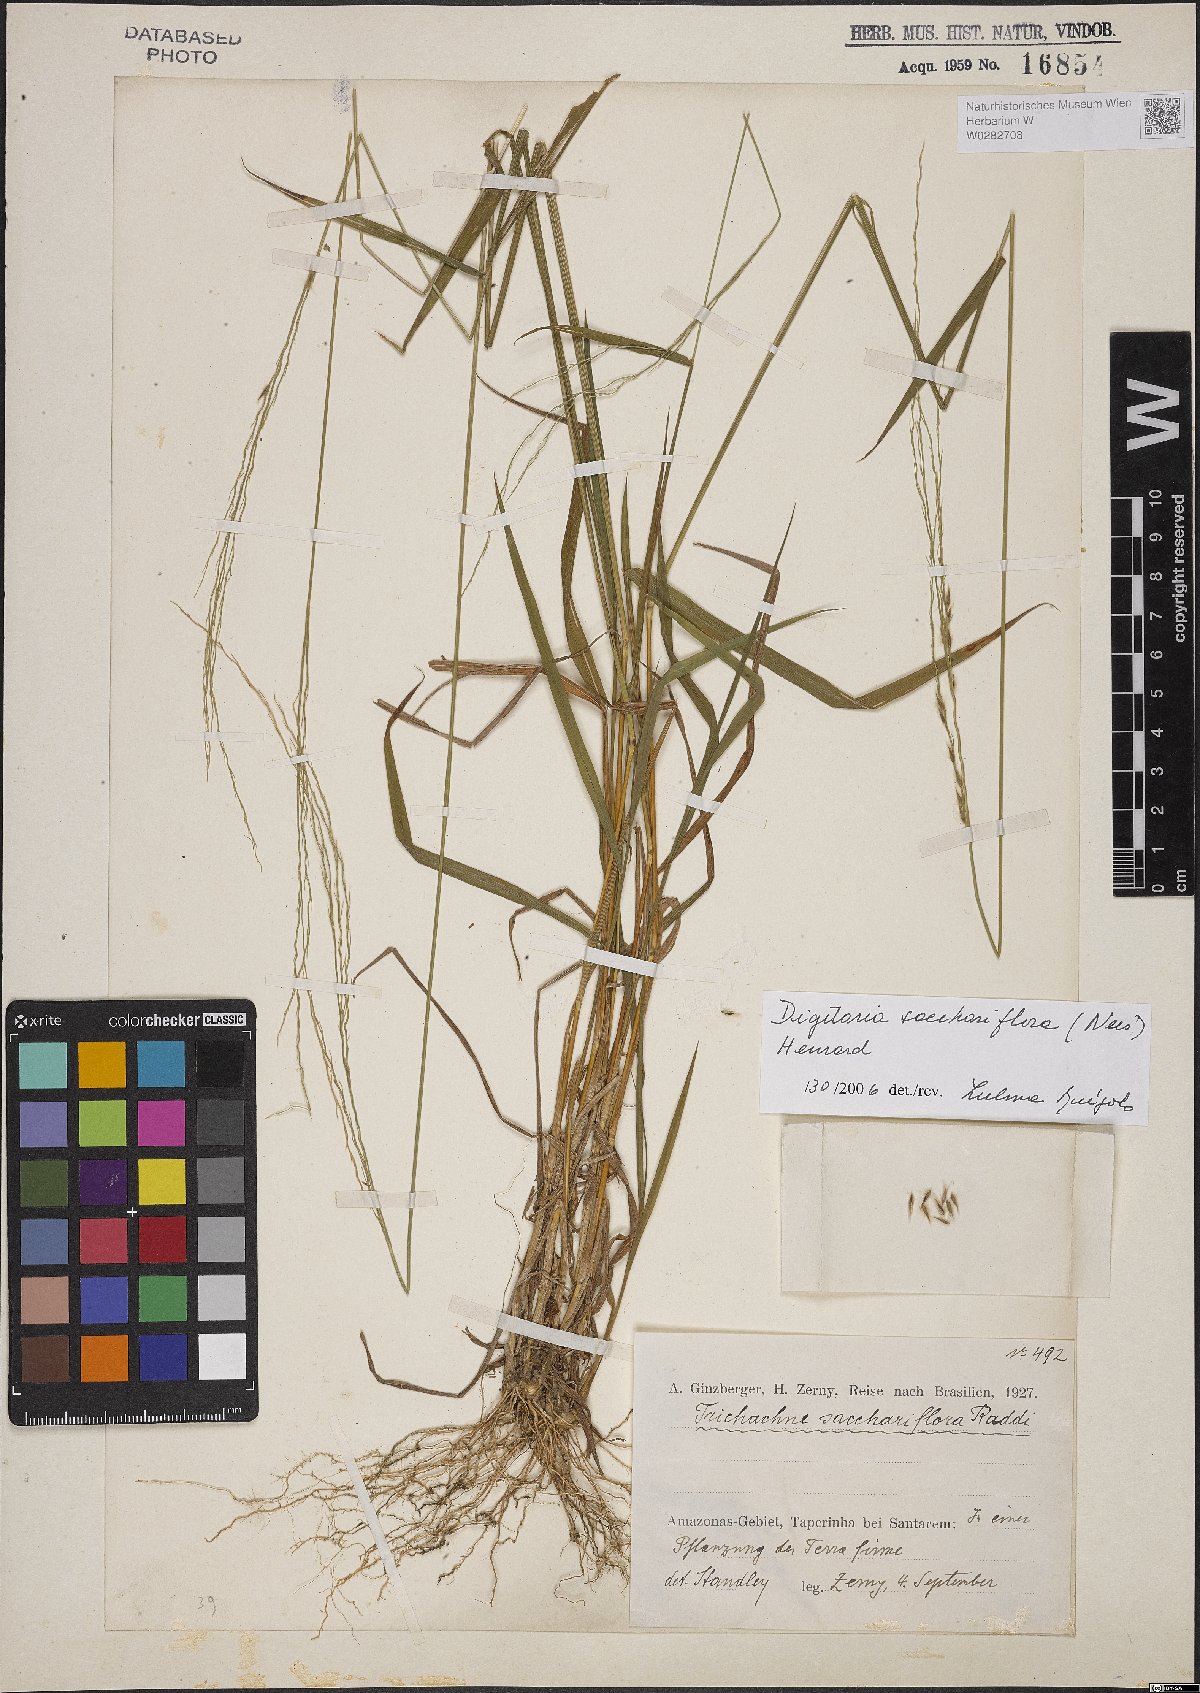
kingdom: Plantae
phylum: Tracheophyta
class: Liliopsida
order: Poales
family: Poaceae
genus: Digitaria
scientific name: Digitaria sacchariflora
